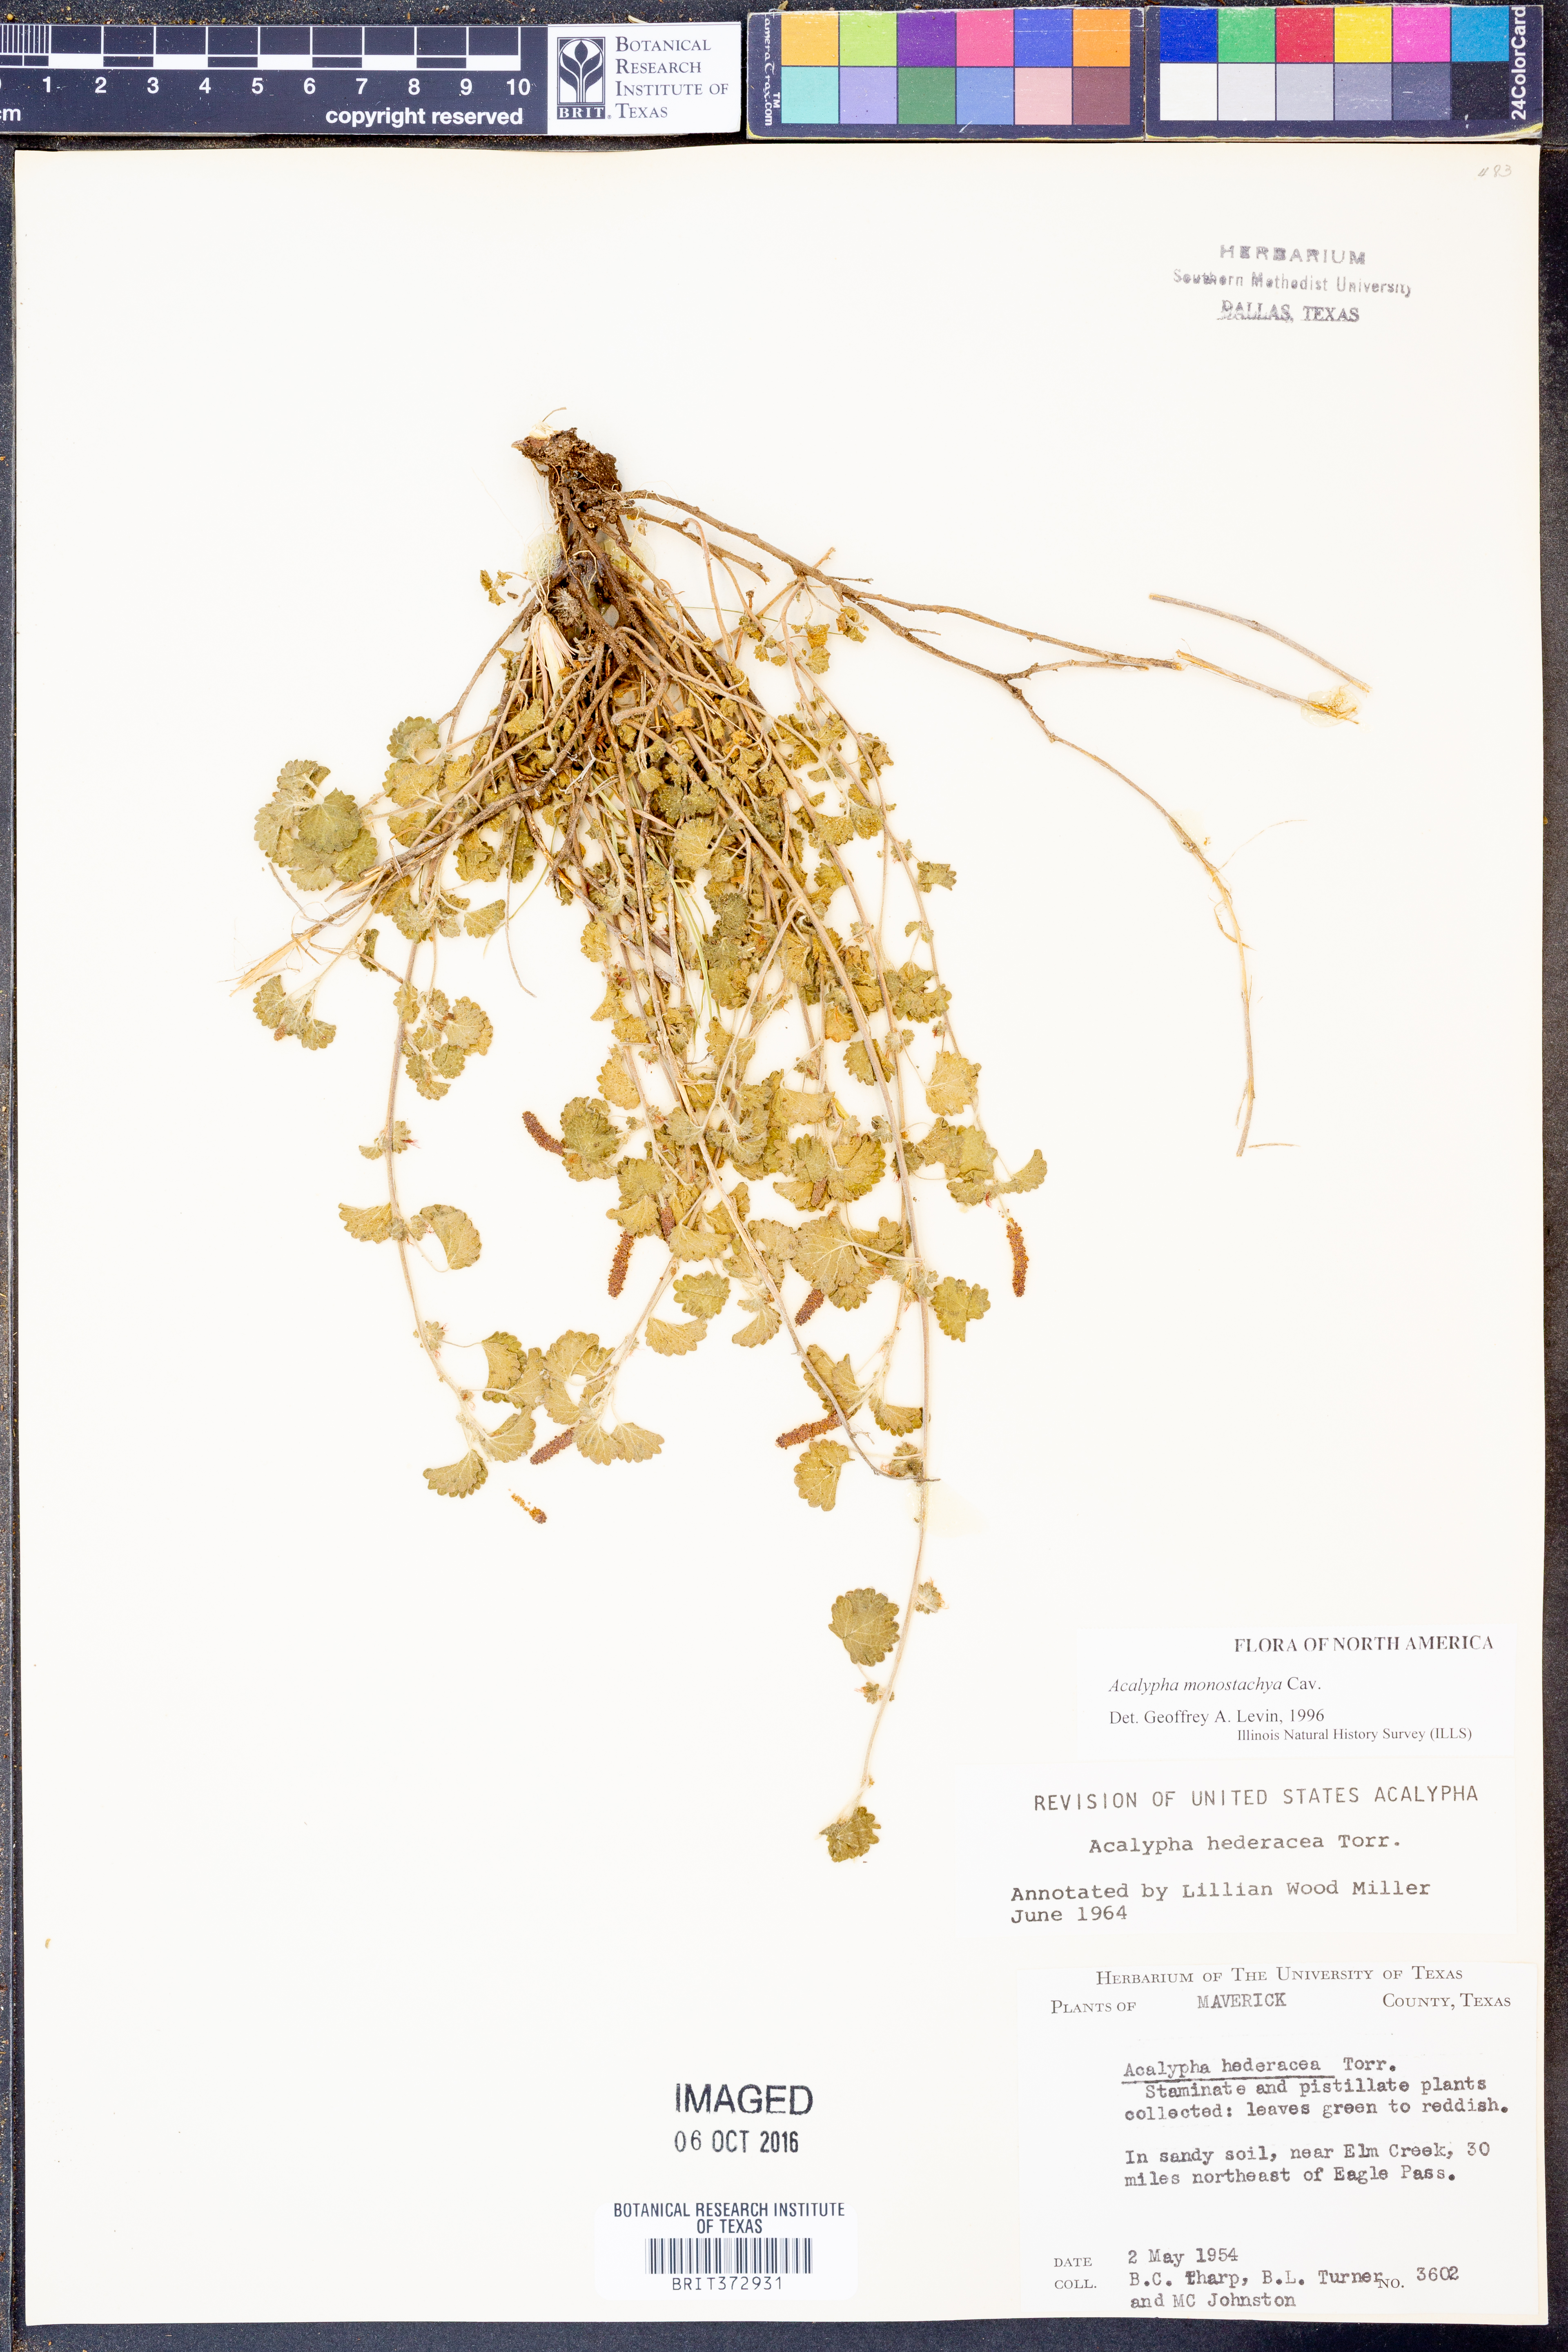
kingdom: Plantae
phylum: Tracheophyta
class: Magnoliopsida
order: Malpighiales
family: Euphorbiaceae
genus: Acalypha
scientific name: Acalypha monostachya
